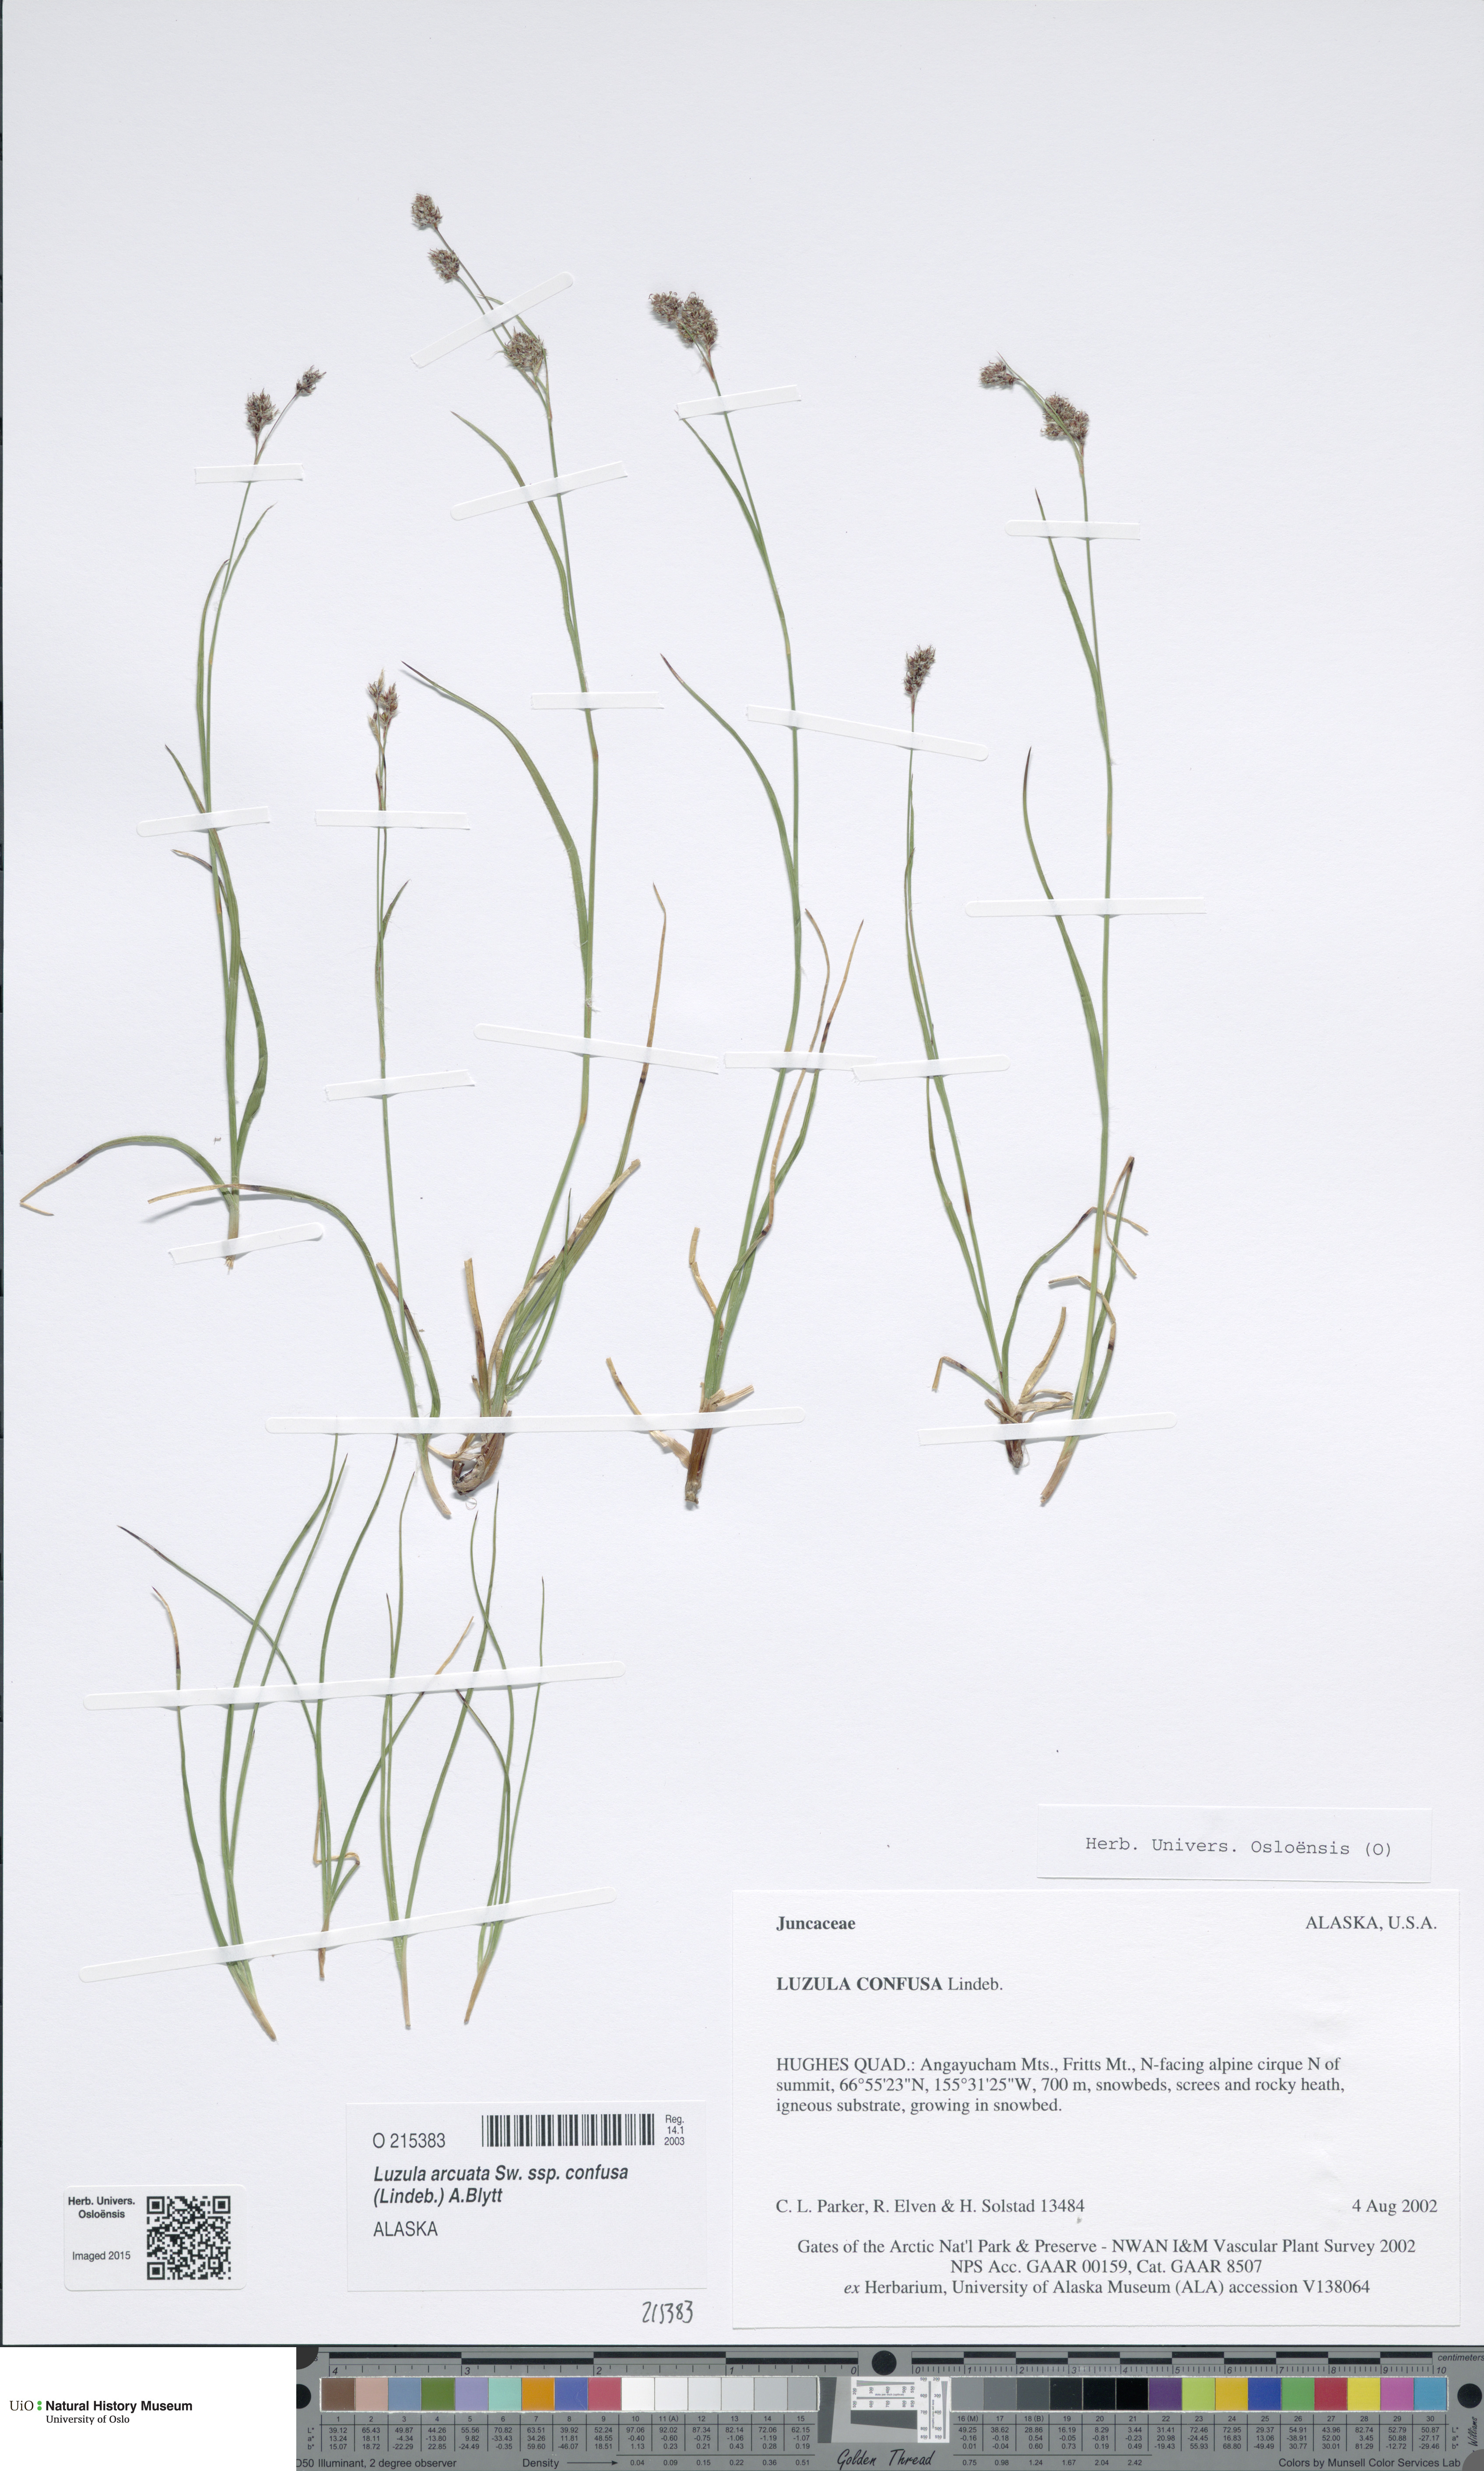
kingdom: Plantae
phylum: Tracheophyta
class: Liliopsida
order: Poales
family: Juncaceae
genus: Luzula
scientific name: Luzula confusa
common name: Northern wood rush
